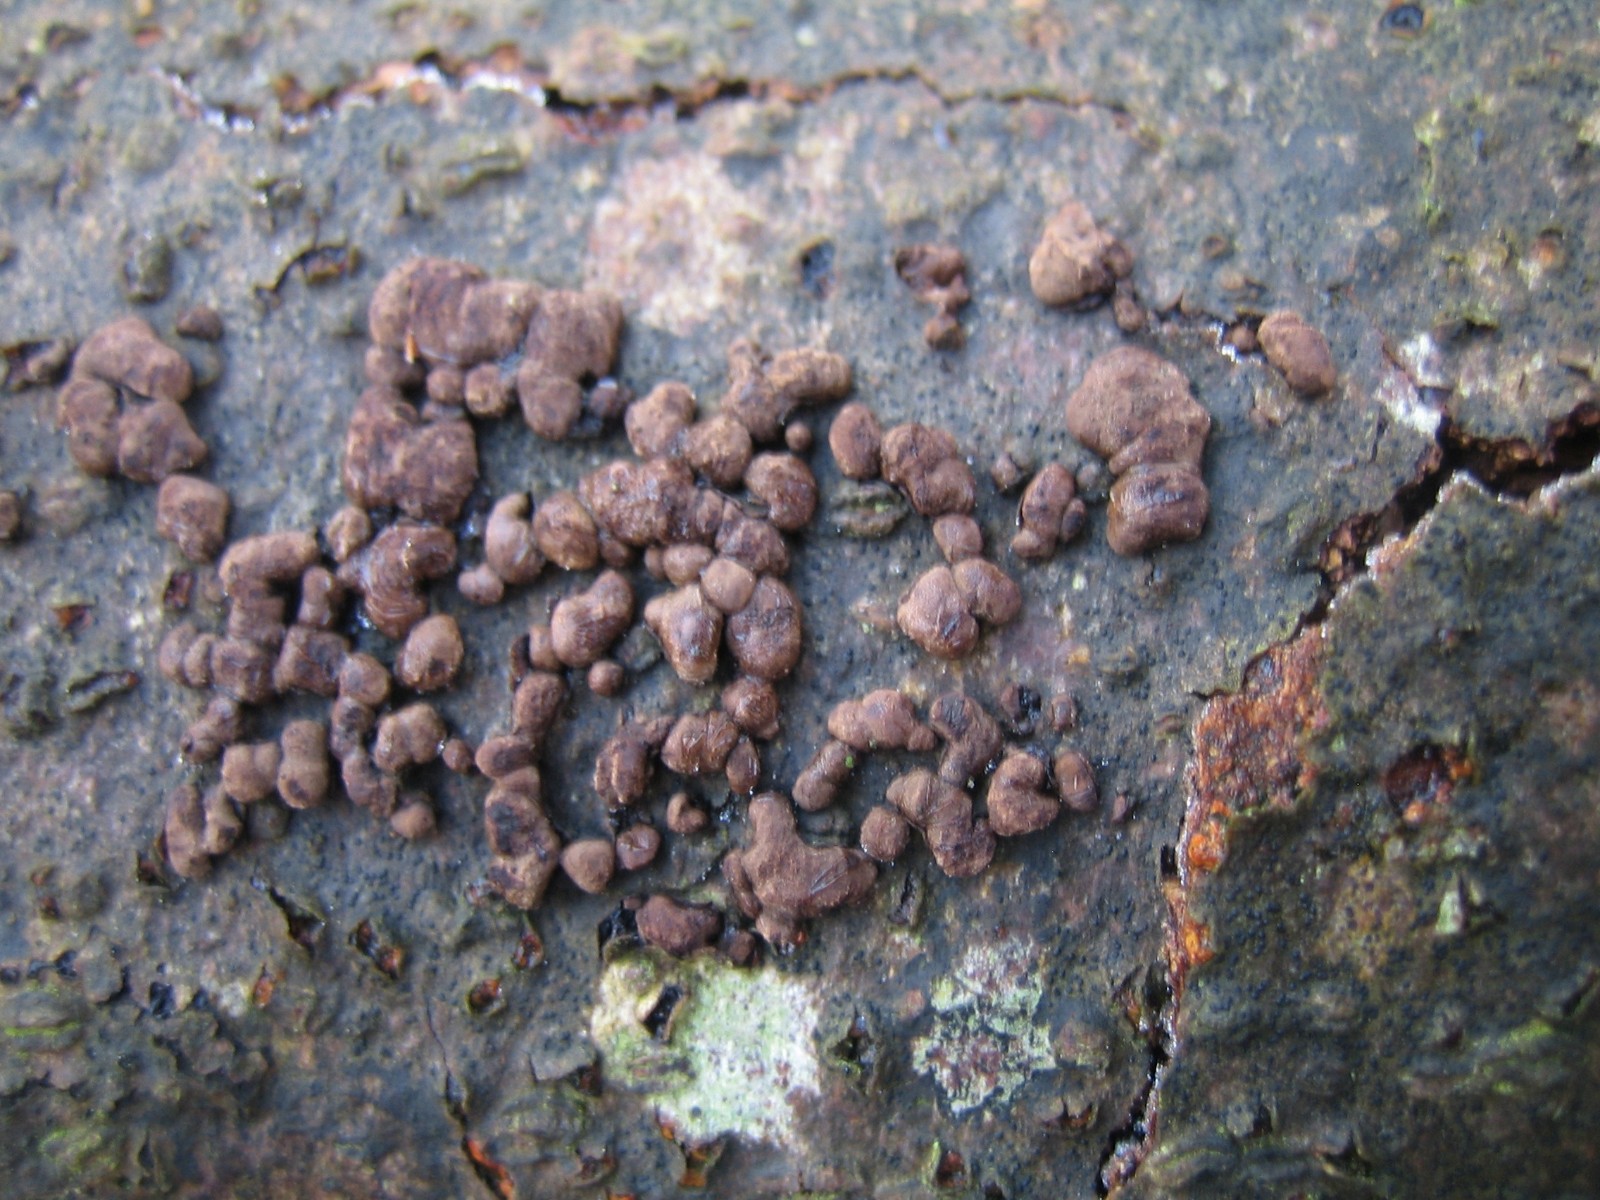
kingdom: Fungi
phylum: Ascomycota
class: Sordariomycetes
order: Xylariales
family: Hypoxylaceae
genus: Hypoxylon
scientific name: Hypoxylon fragiforme
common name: kuljordbær
